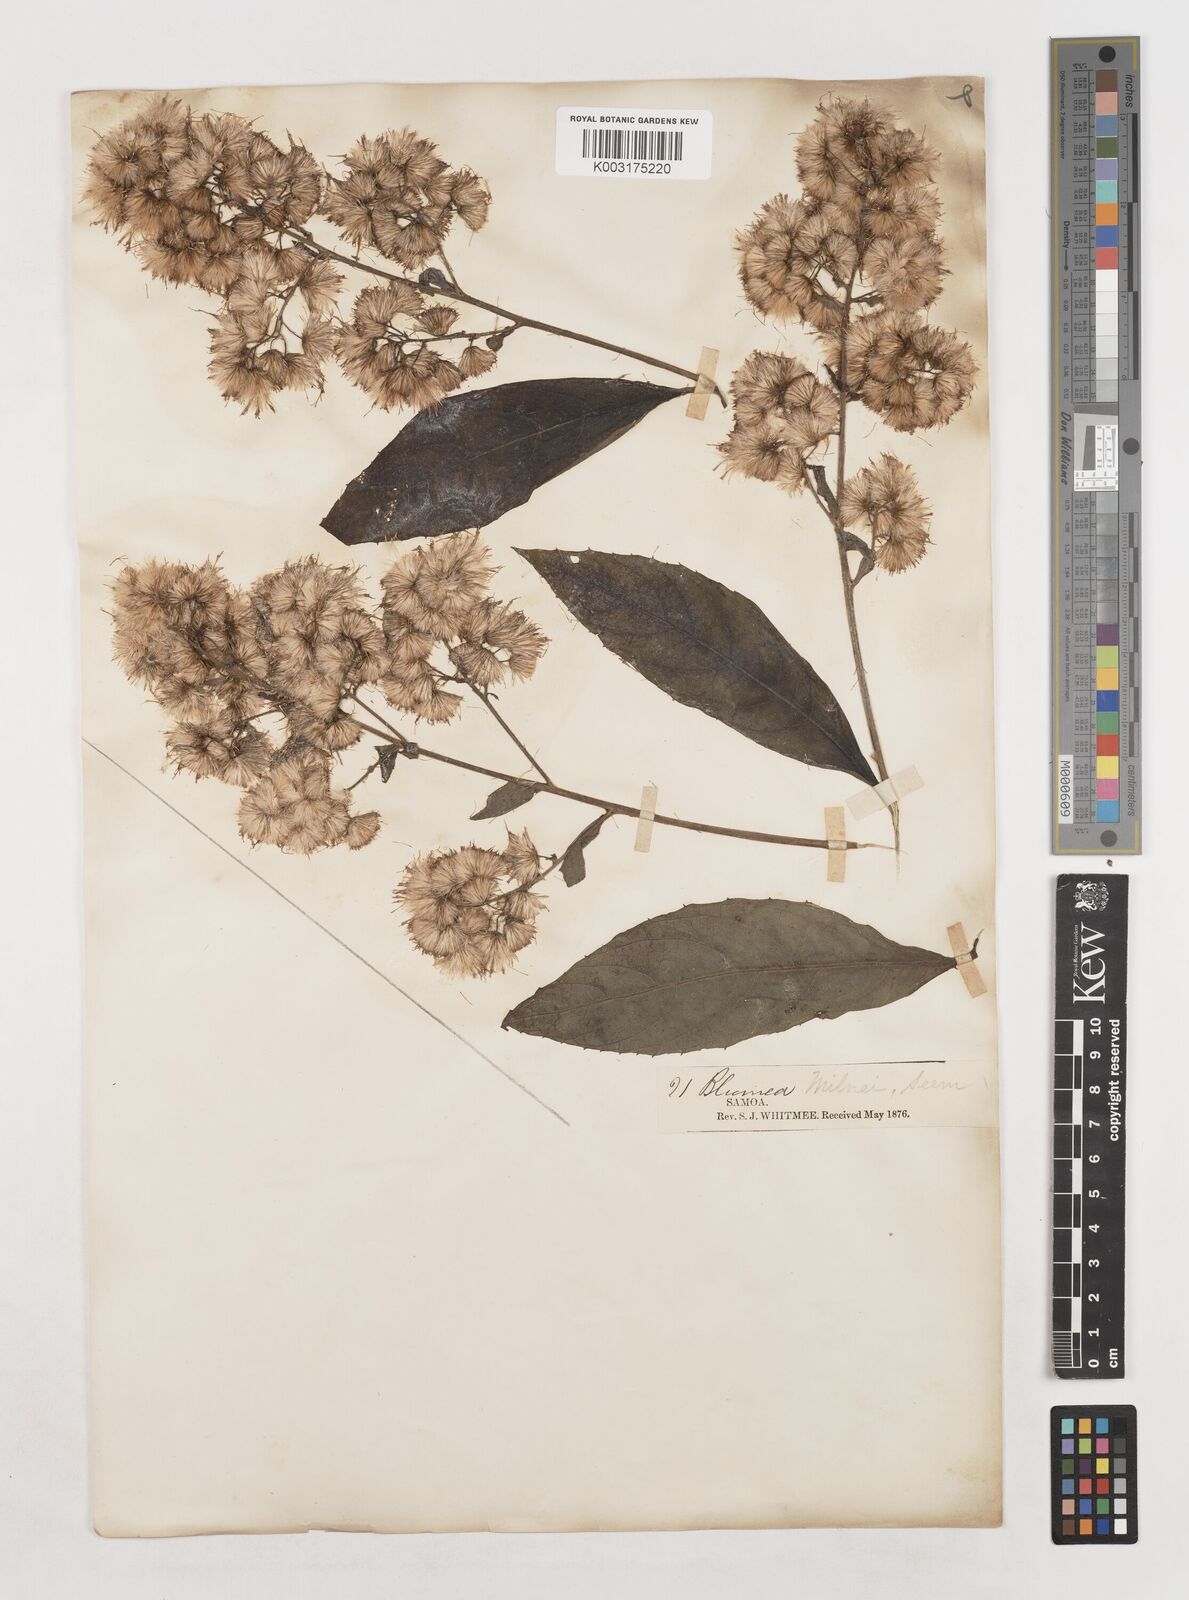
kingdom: Plantae
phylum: Tracheophyta
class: Magnoliopsida
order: Asterales
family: Asteraceae
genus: Blumea
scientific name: Blumea
